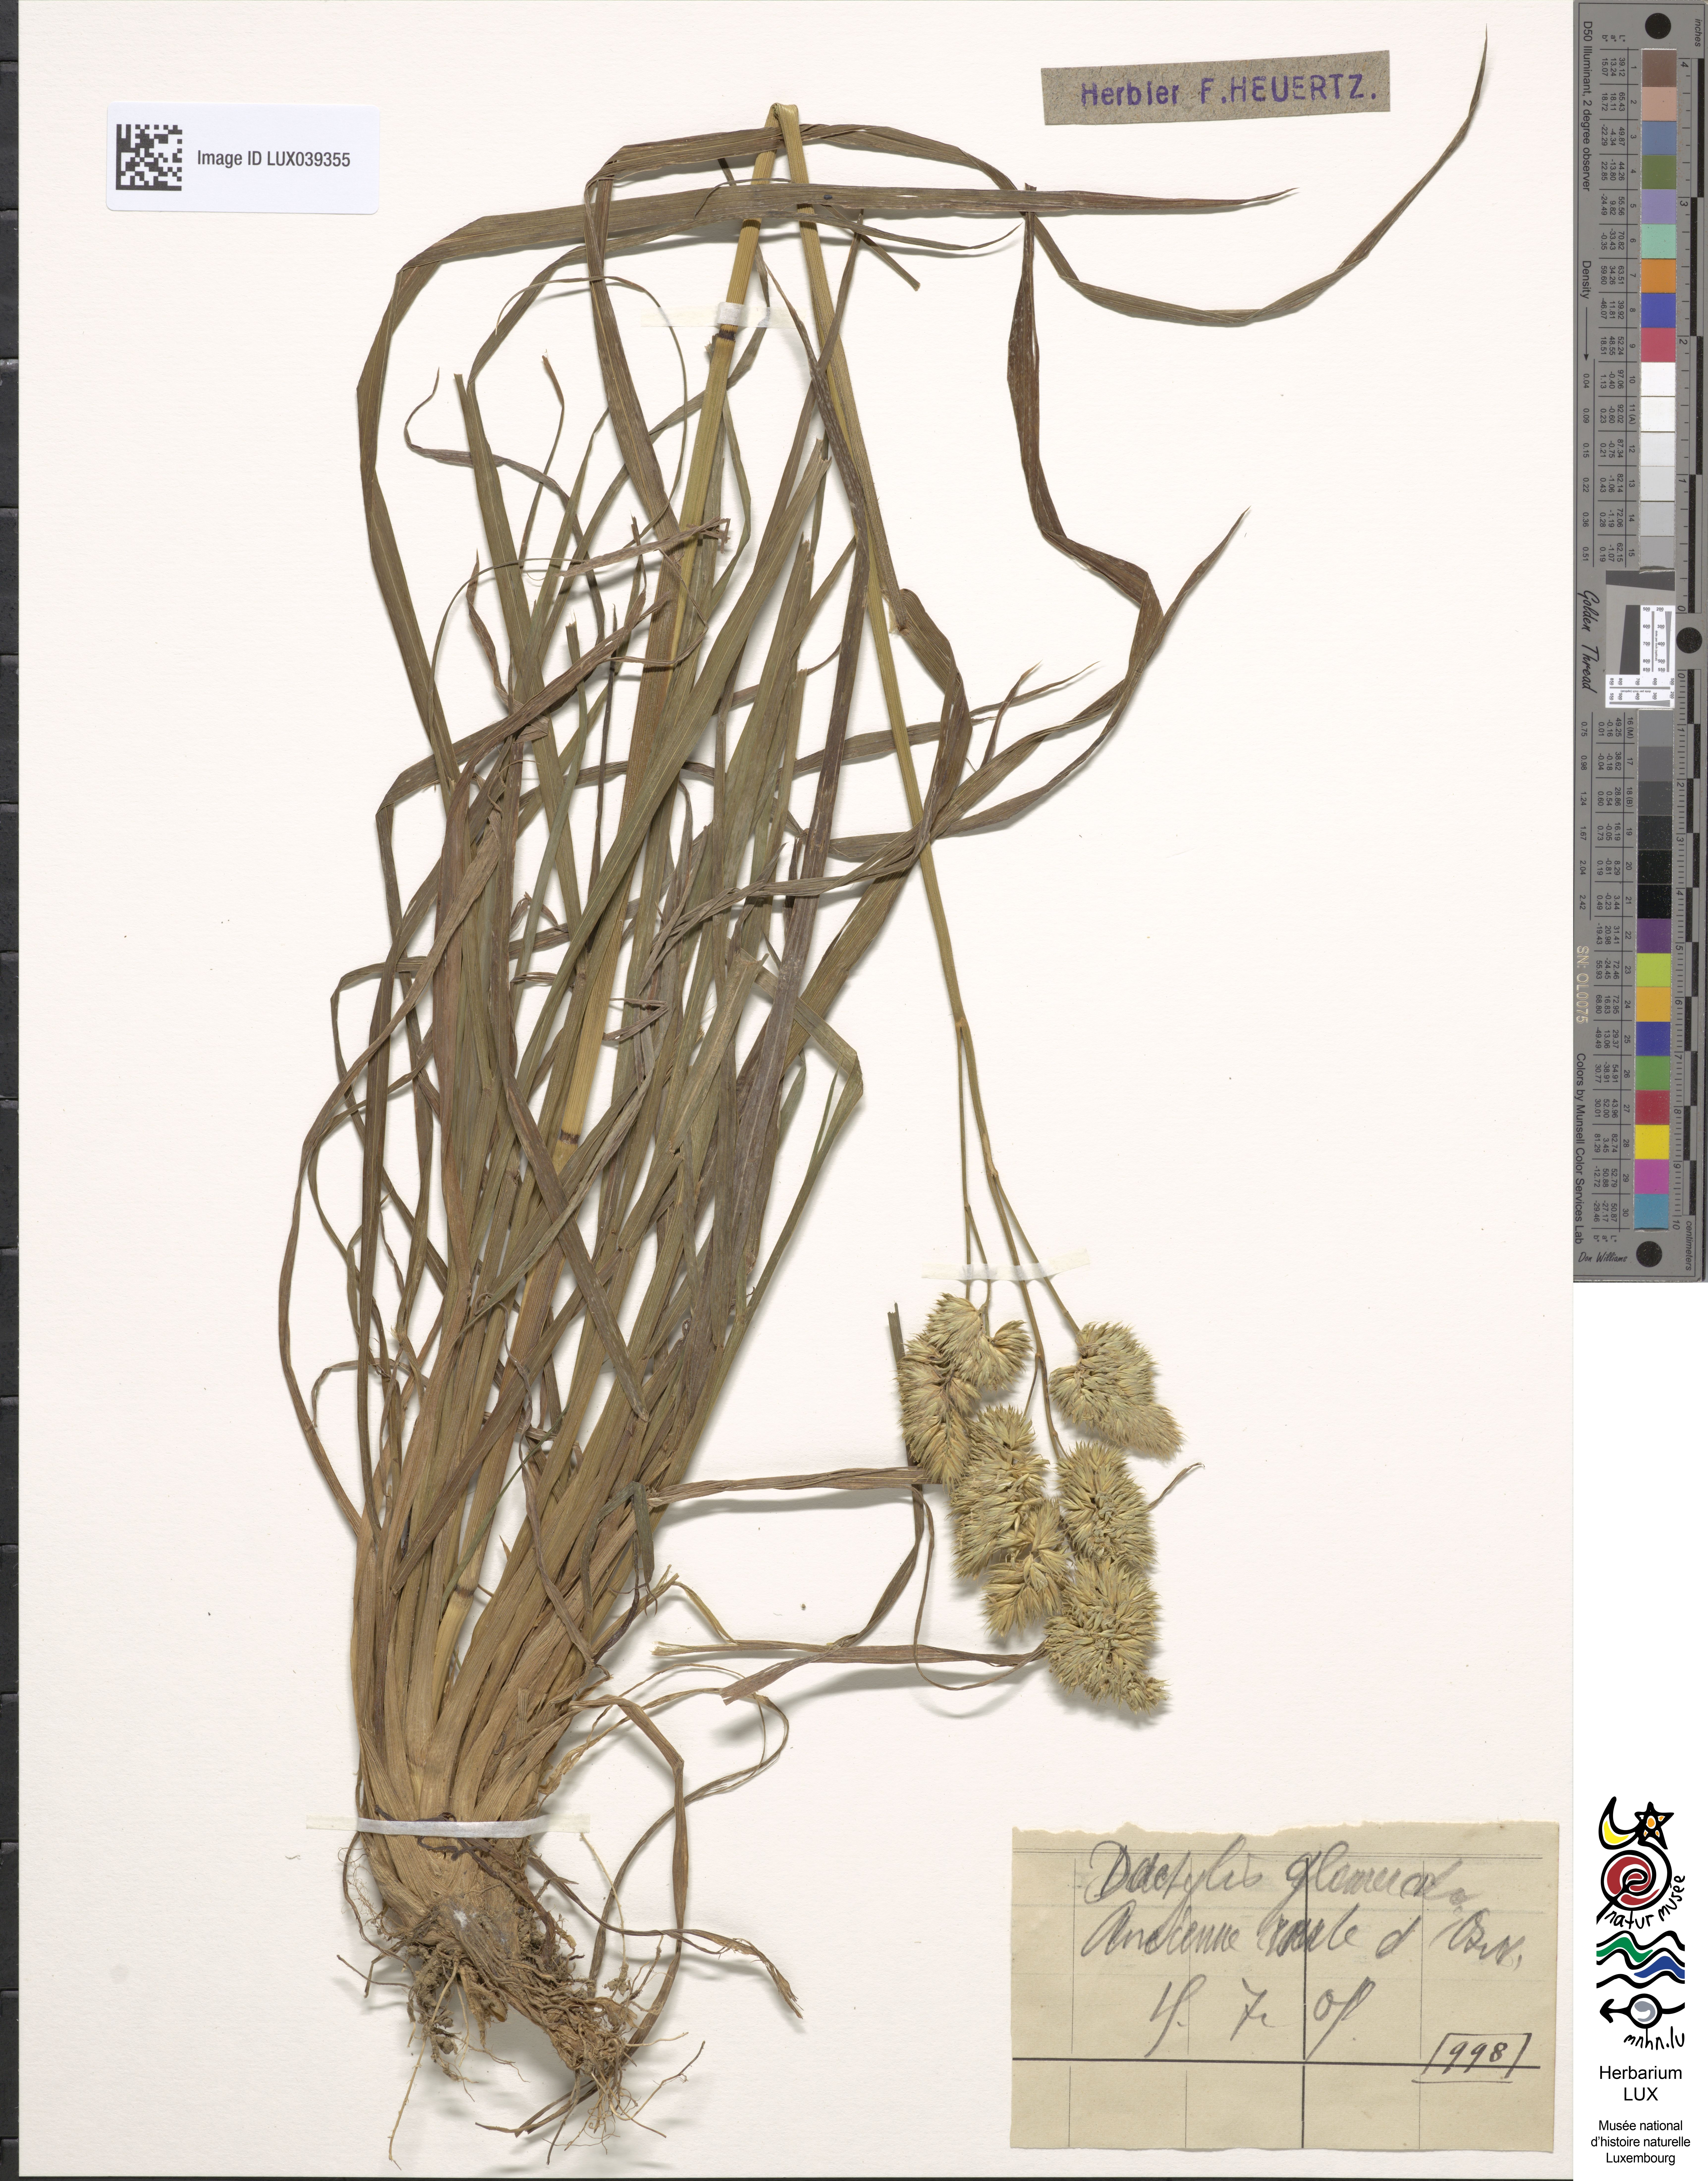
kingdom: Plantae
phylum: Tracheophyta
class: Liliopsida
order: Poales
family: Poaceae
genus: Dactylis
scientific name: Dactylis glomerata
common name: Orchardgrass
